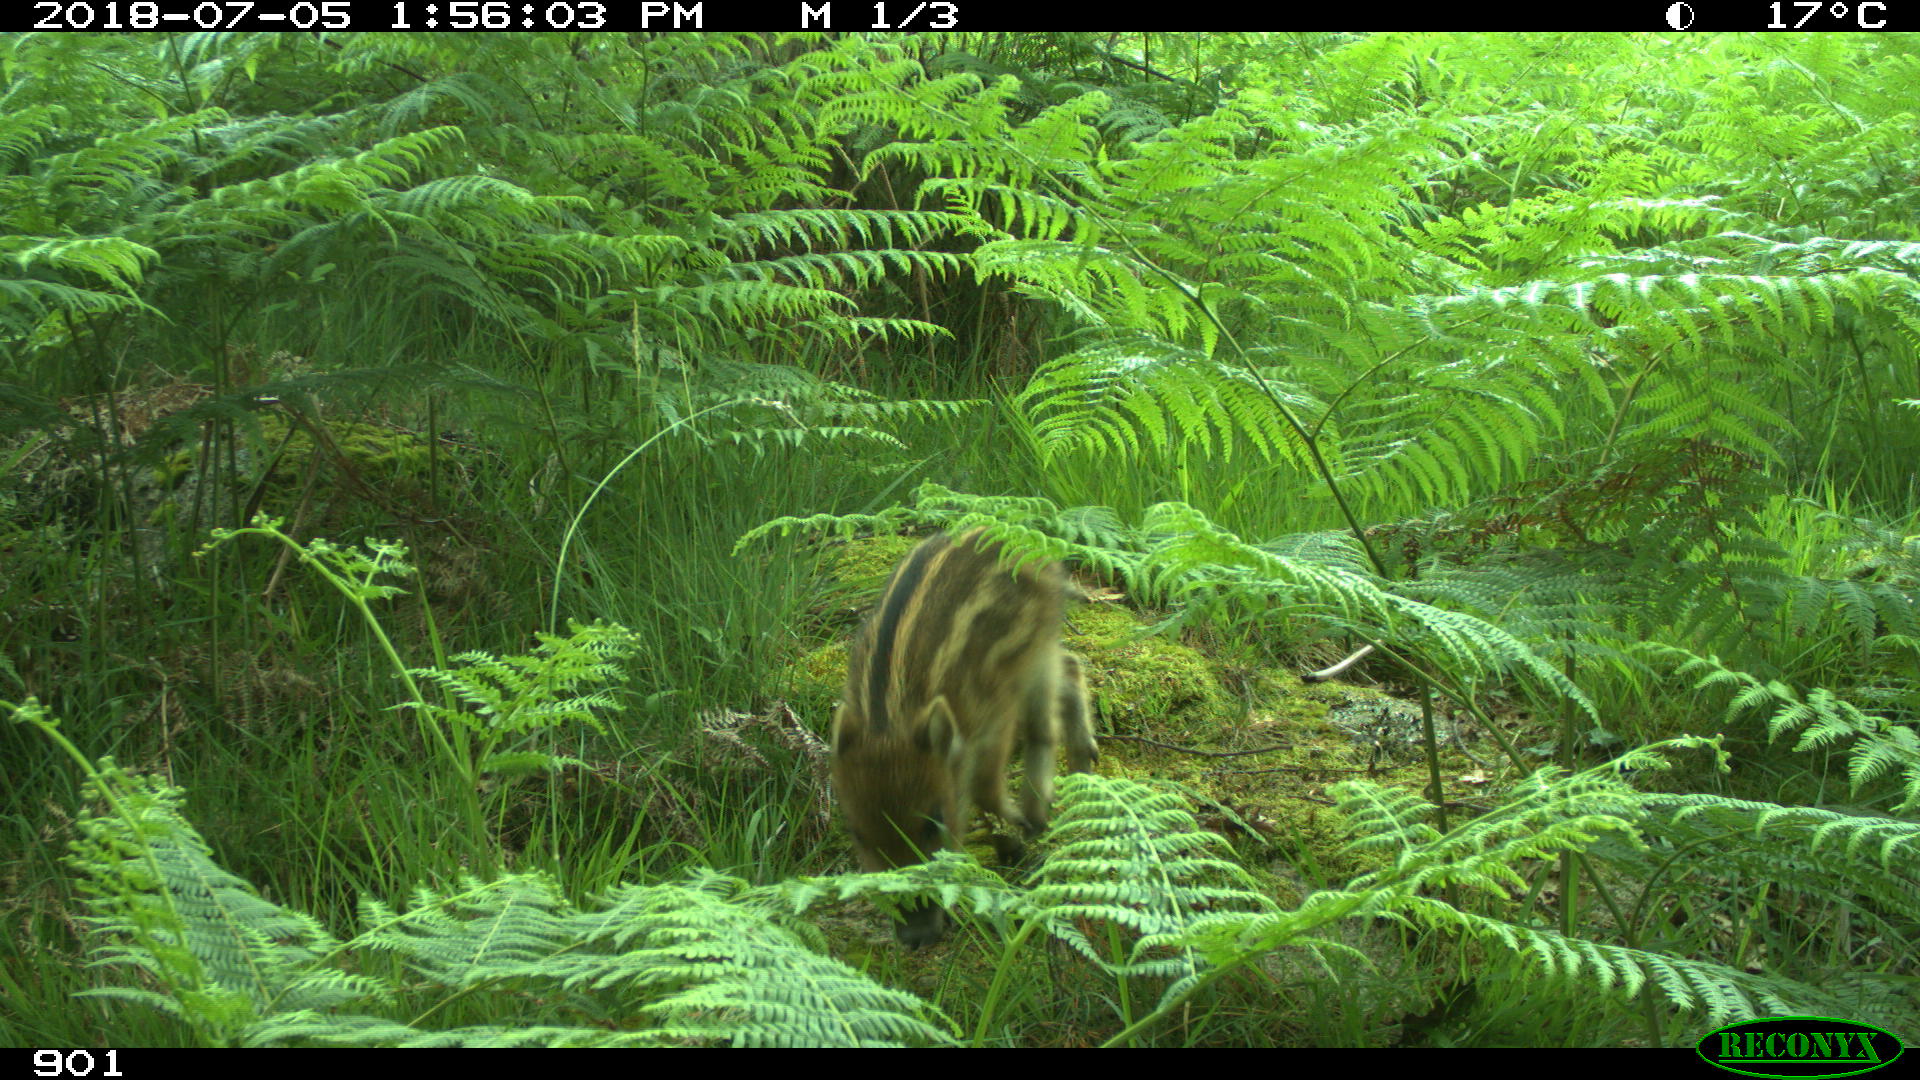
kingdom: Animalia
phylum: Chordata
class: Mammalia
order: Artiodactyla
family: Suidae
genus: Sus
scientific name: Sus scrofa
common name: Wild boar
